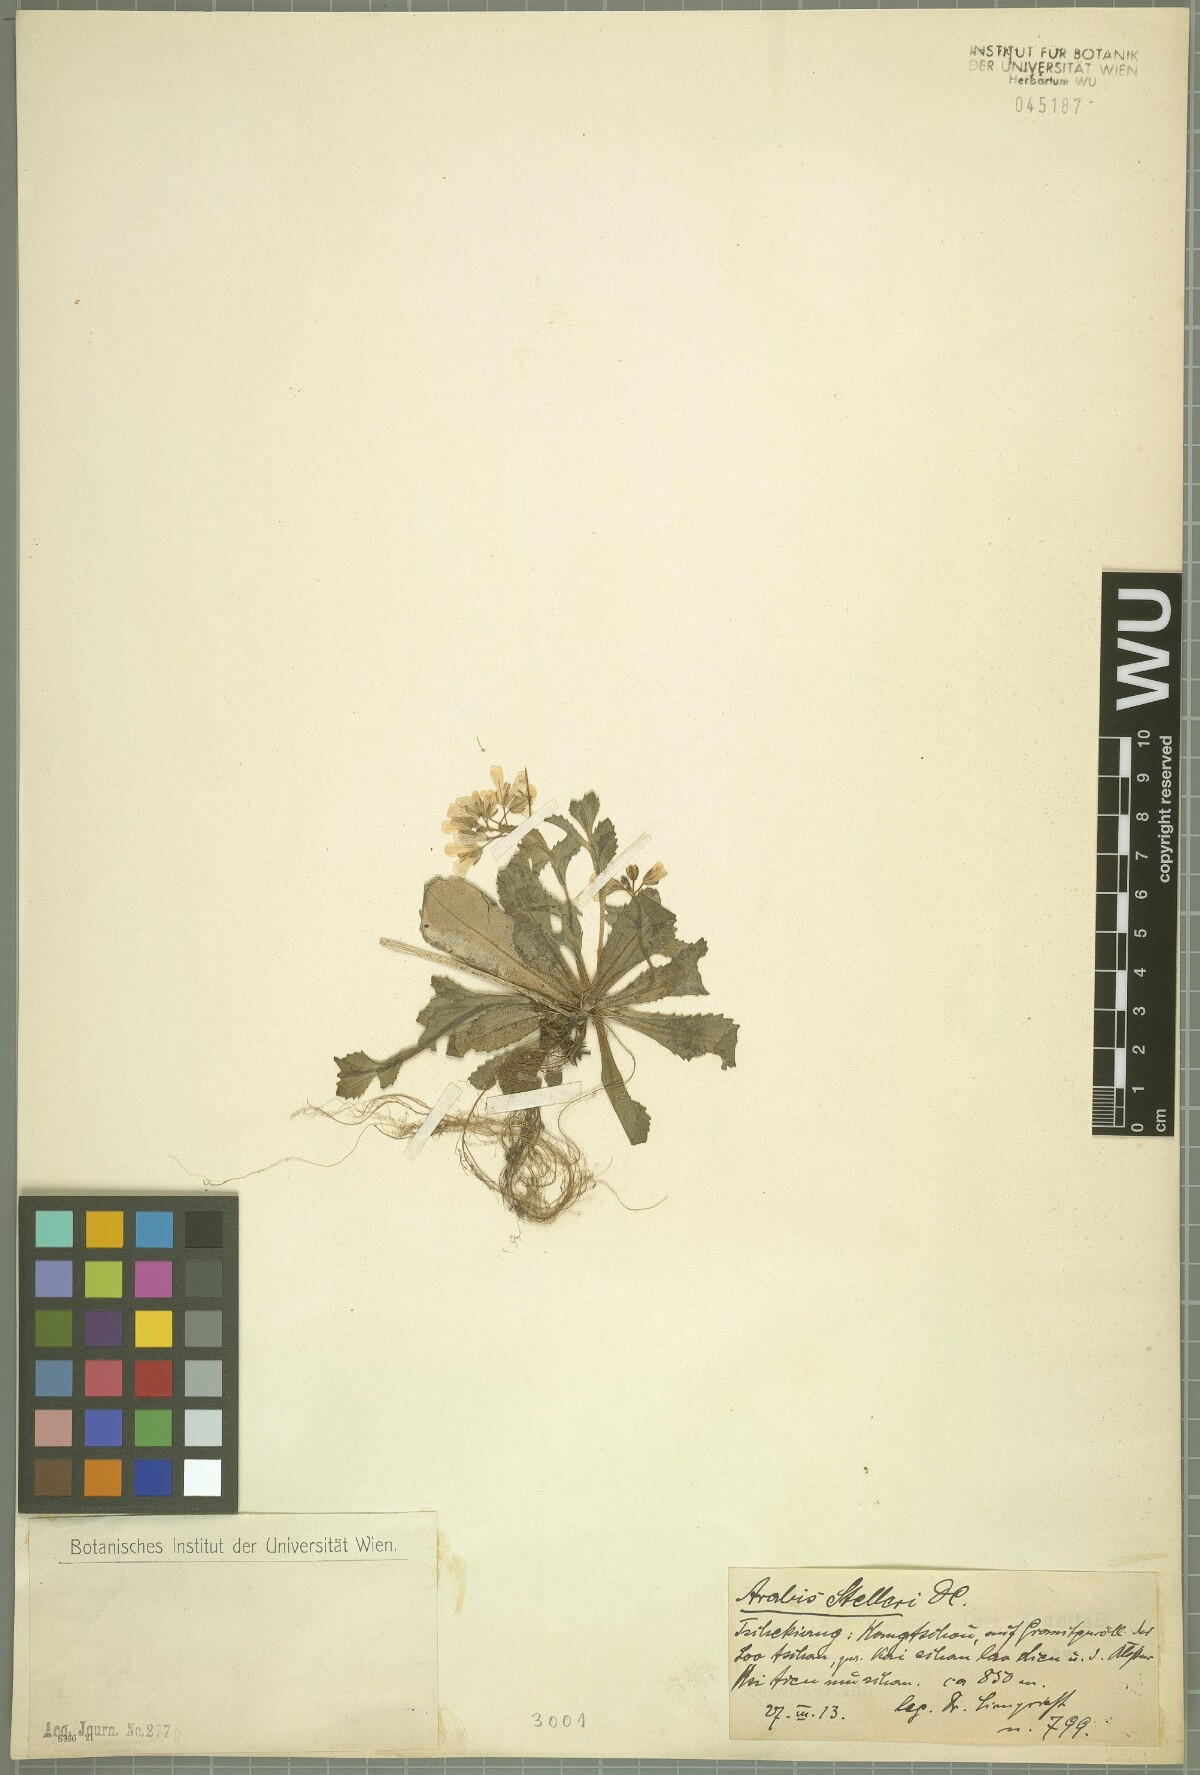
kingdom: Plantae
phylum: Tracheophyta
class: Magnoliopsida
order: Brassicales
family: Brassicaceae
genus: Arabis
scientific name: Arabis stelleri
